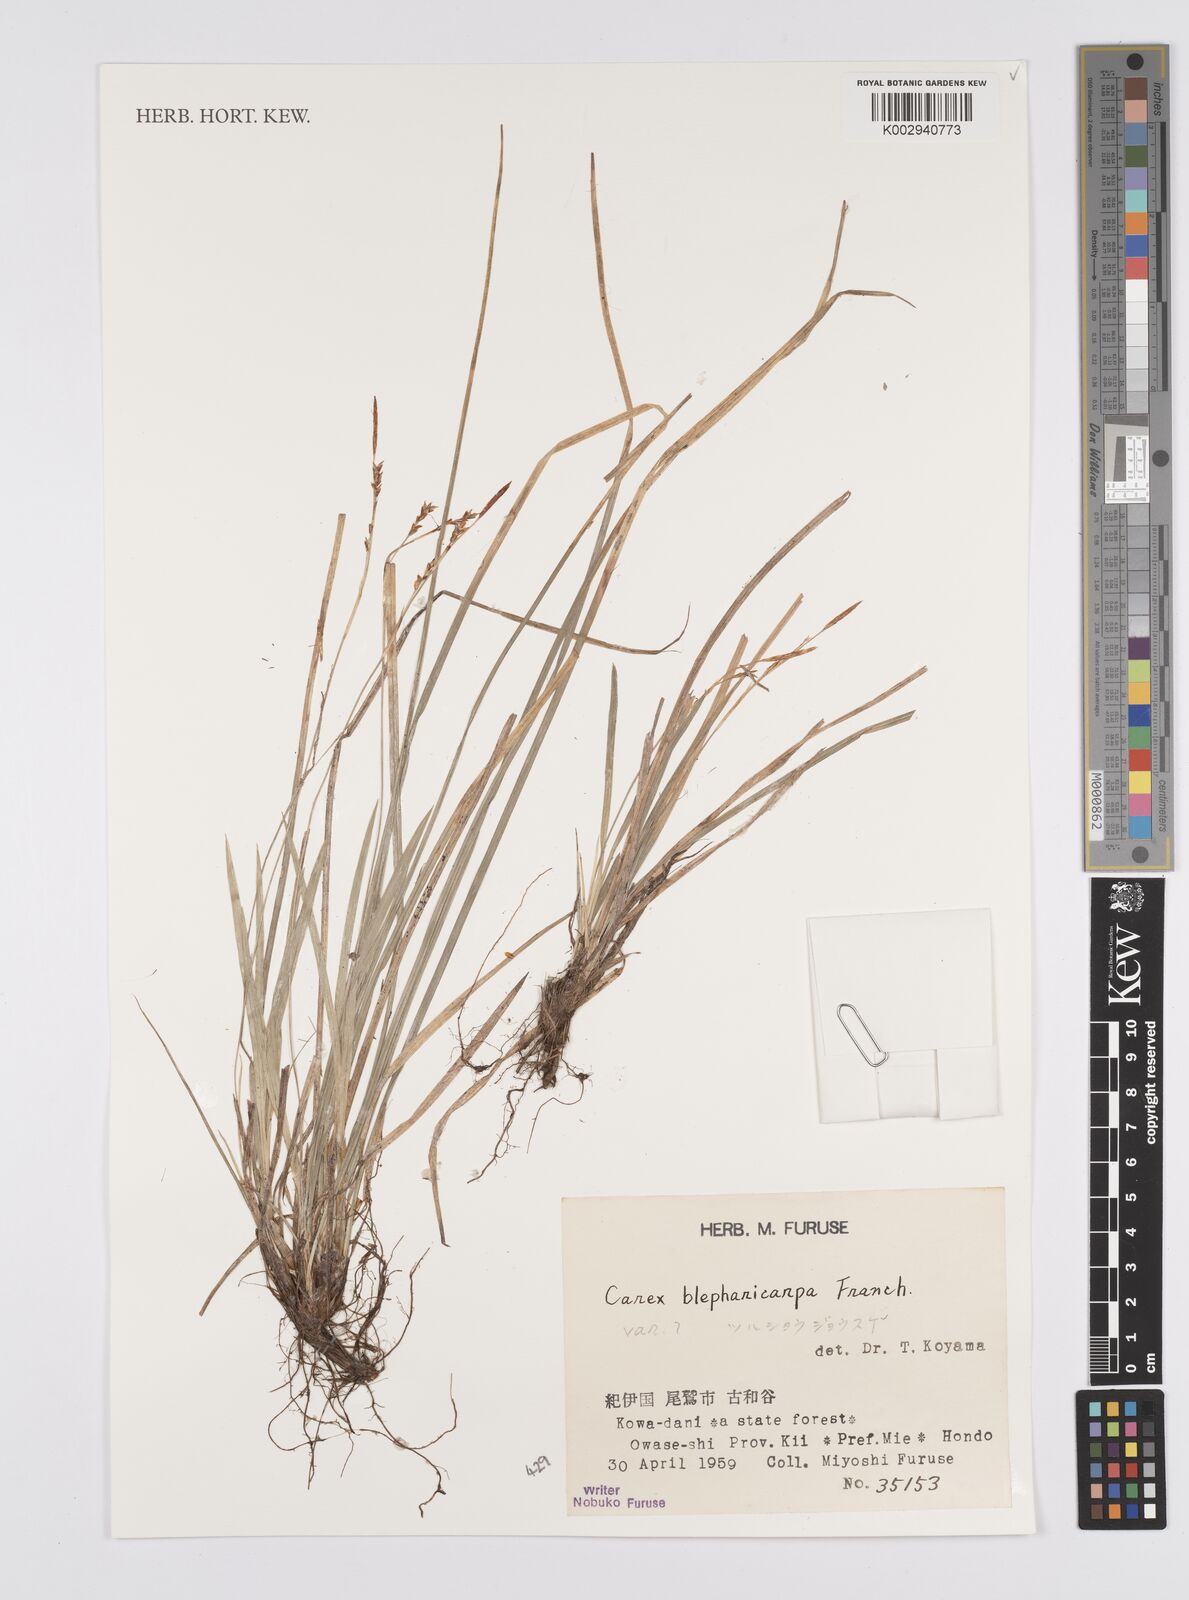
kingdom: Plantae
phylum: Tracheophyta
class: Liliopsida
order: Poales
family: Cyperaceae
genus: Carex
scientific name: Carex blepharicarpa
